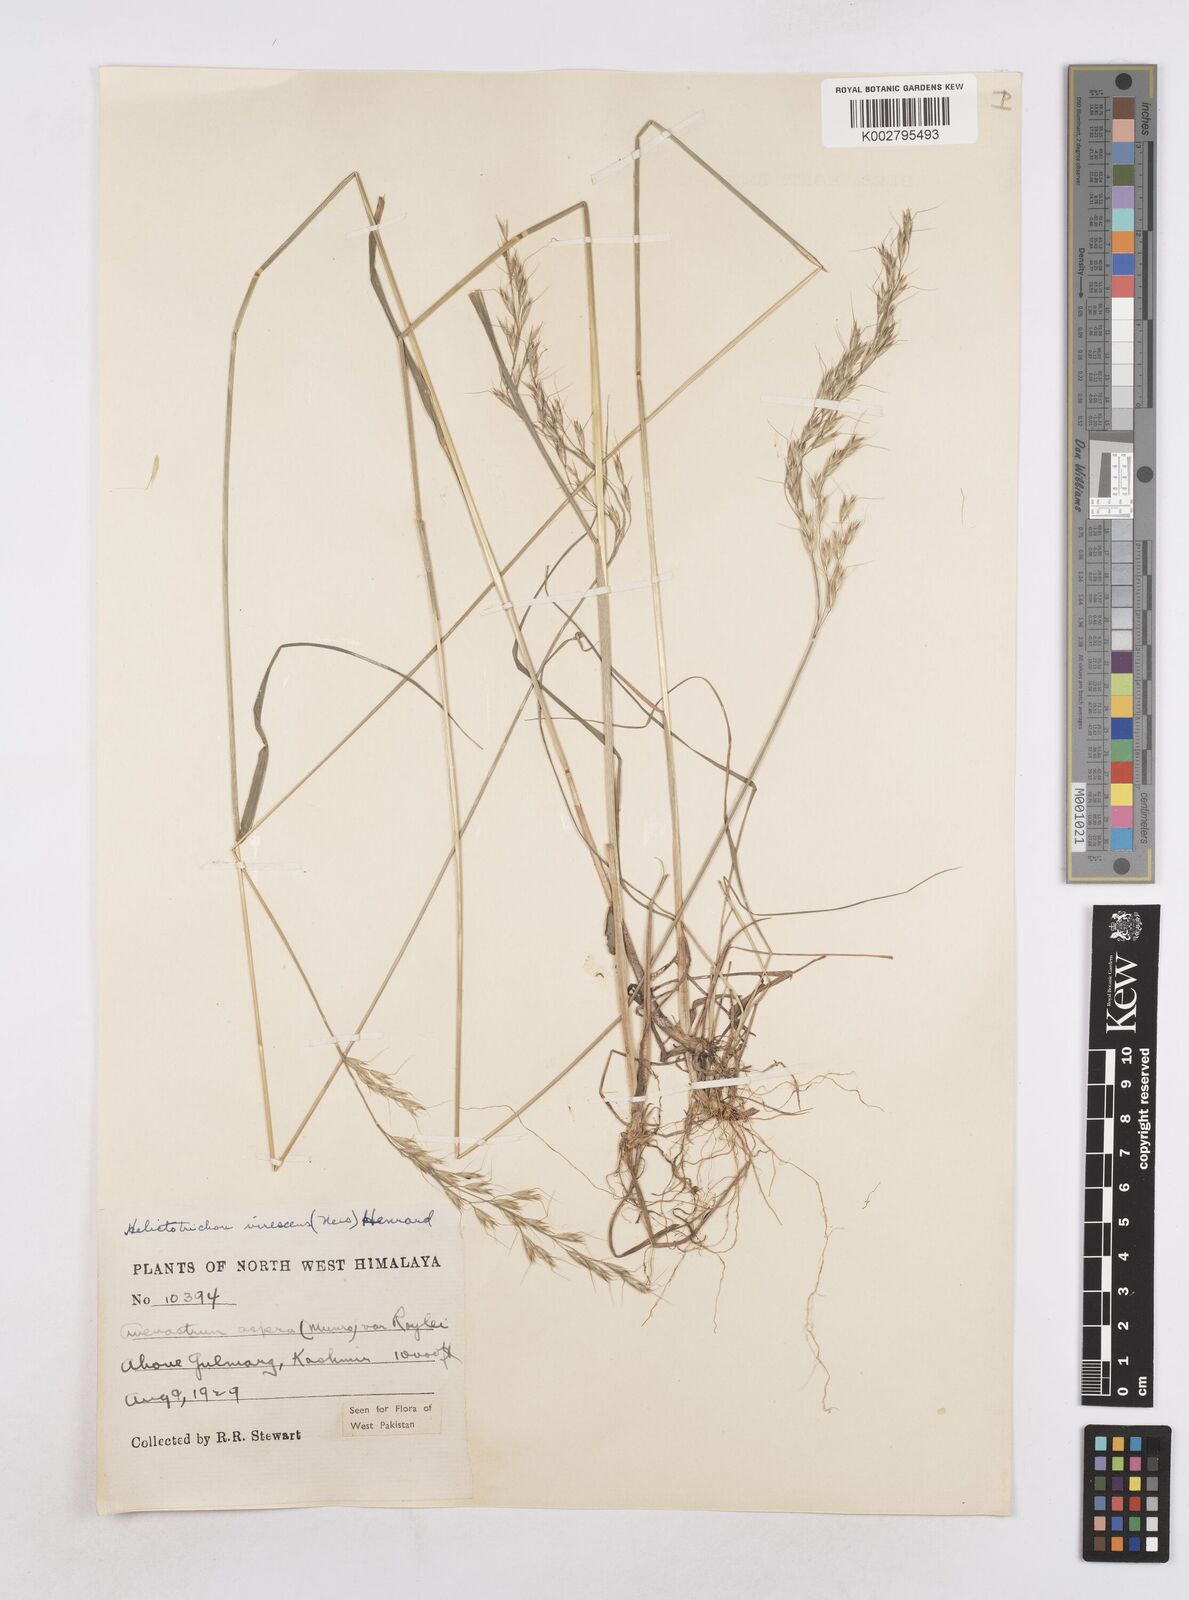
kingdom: Plantae
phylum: Tracheophyta
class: Liliopsida
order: Poales
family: Poaceae
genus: Trisetopsis
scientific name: Trisetopsis junghuhnii
